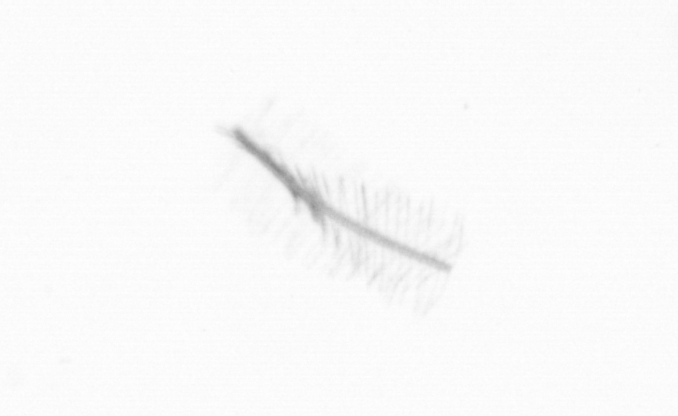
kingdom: Chromista
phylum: Ochrophyta
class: Bacillariophyceae
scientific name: Bacillariophyceae
